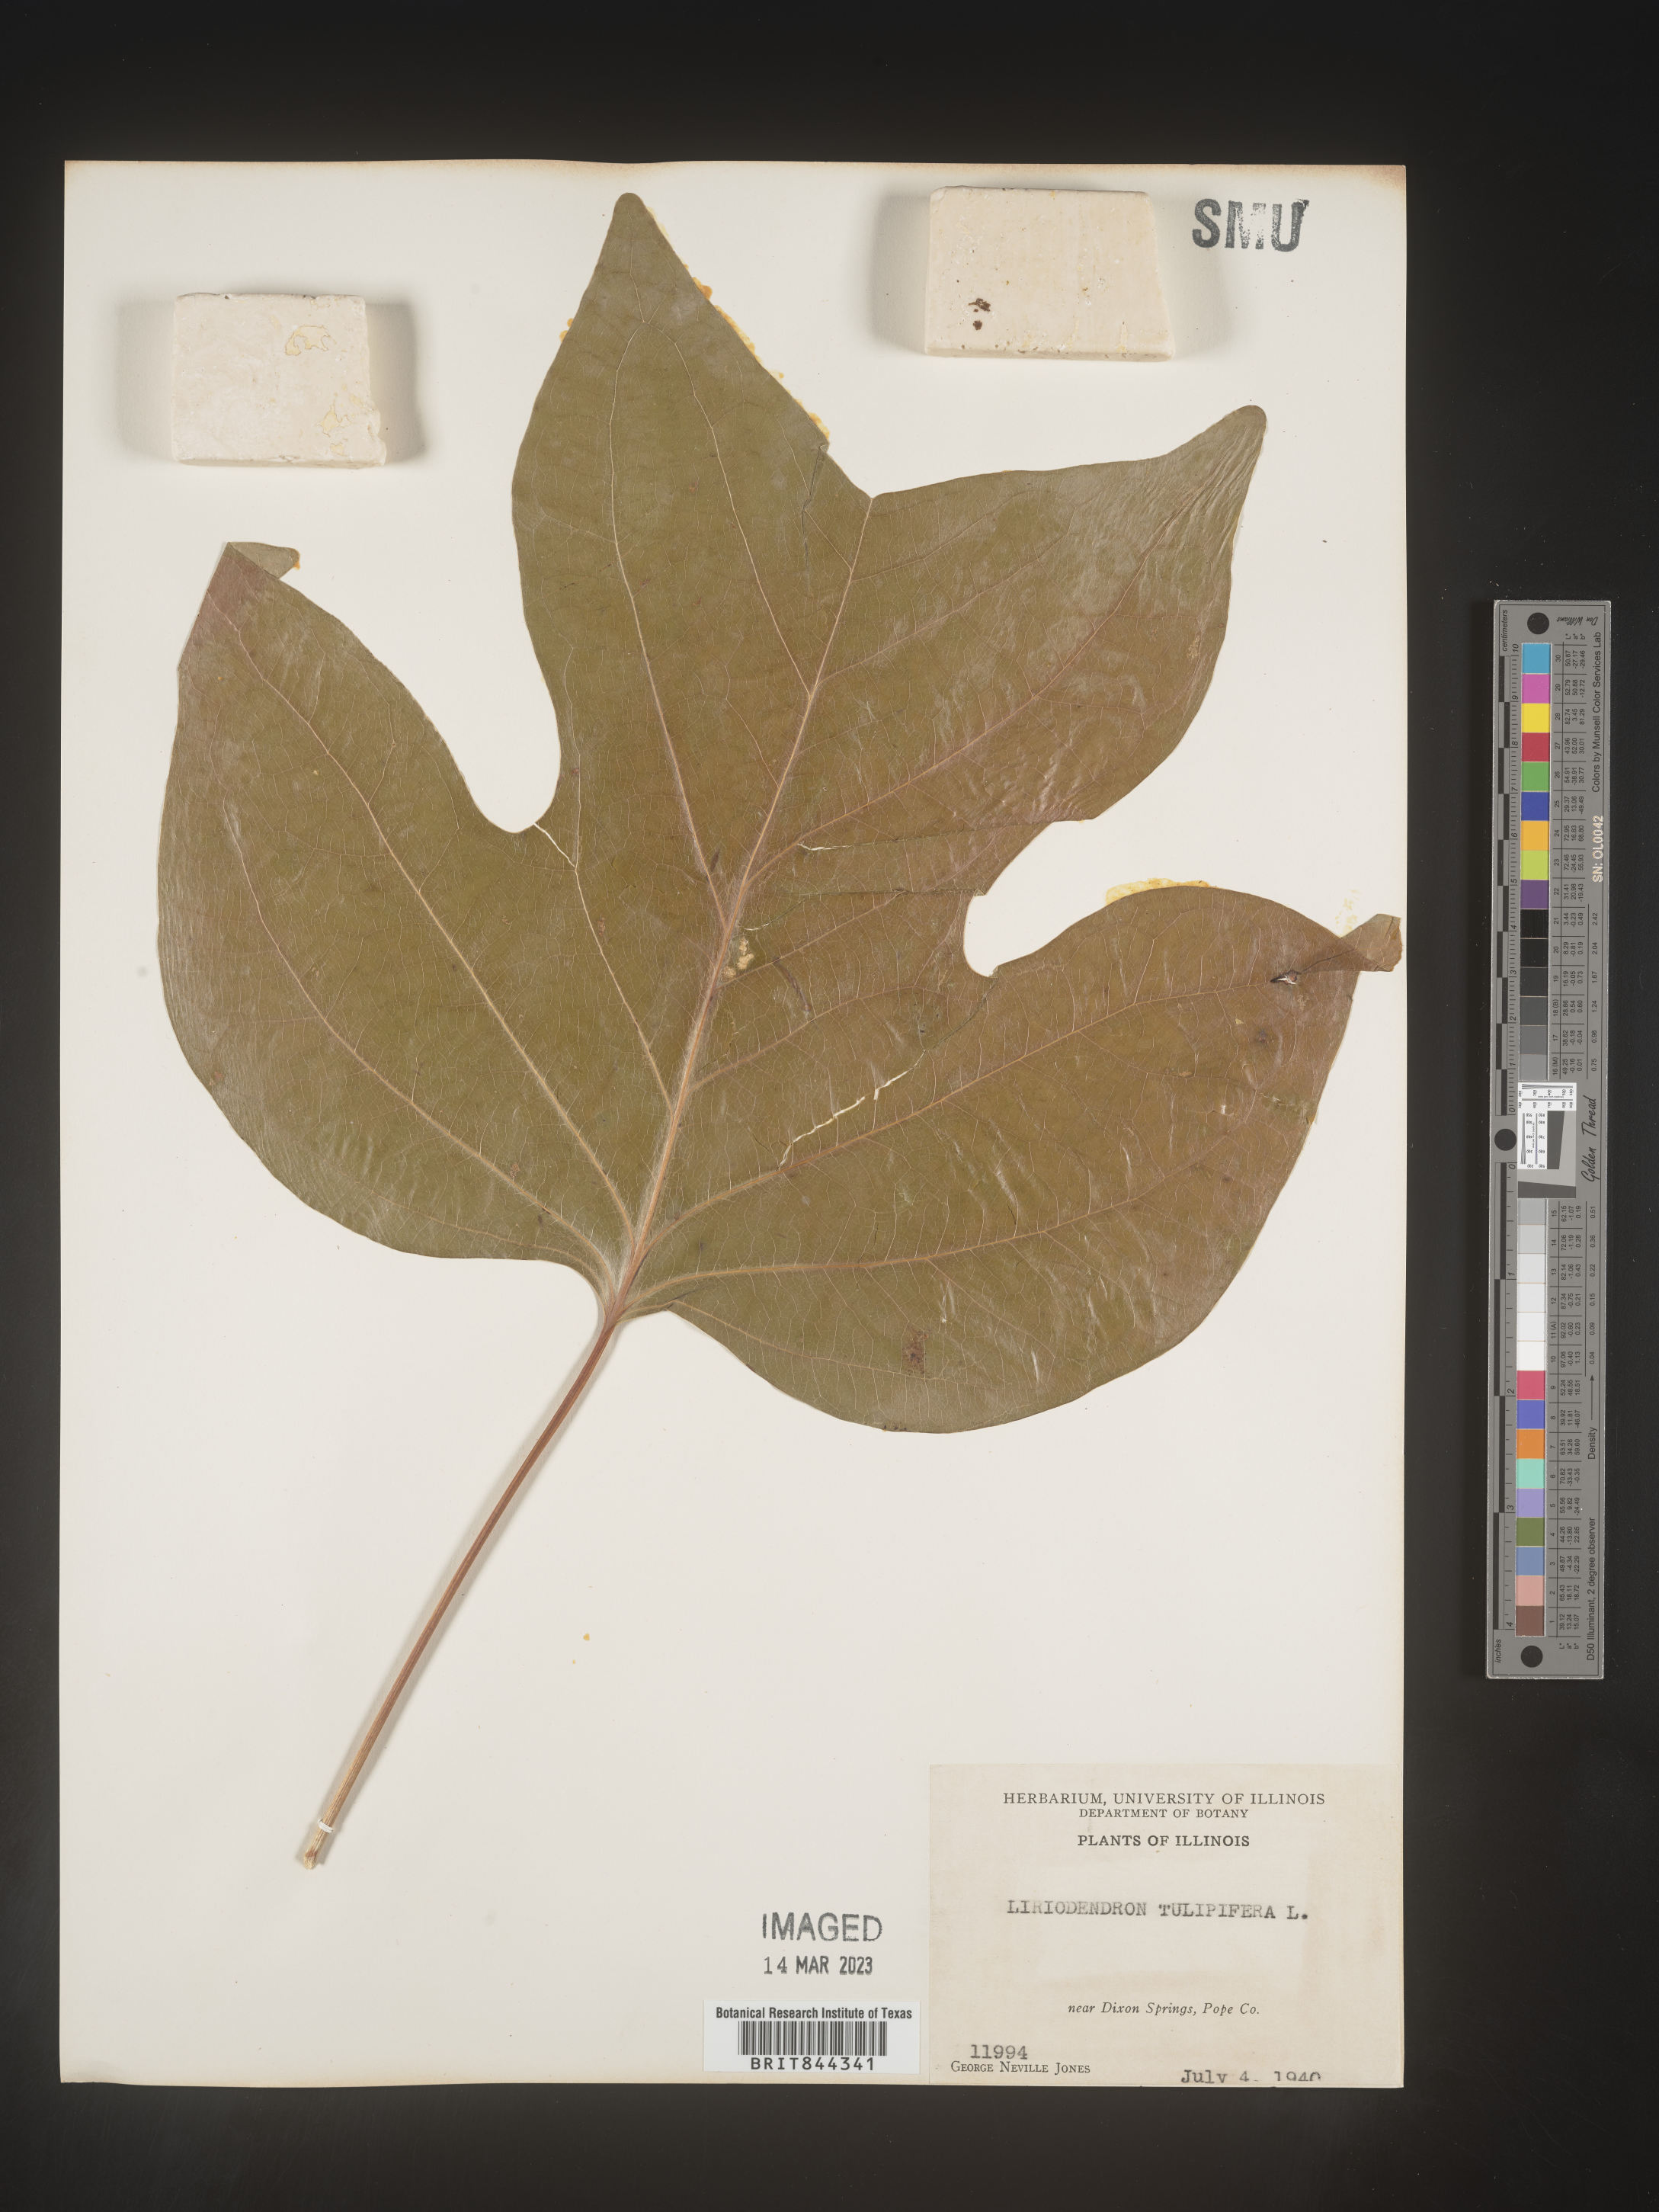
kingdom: Plantae
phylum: Tracheophyta
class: Magnoliopsida
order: Magnoliales
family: Magnoliaceae
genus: Liriodendron
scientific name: Liriodendron tulipifera
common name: Tulip tree
